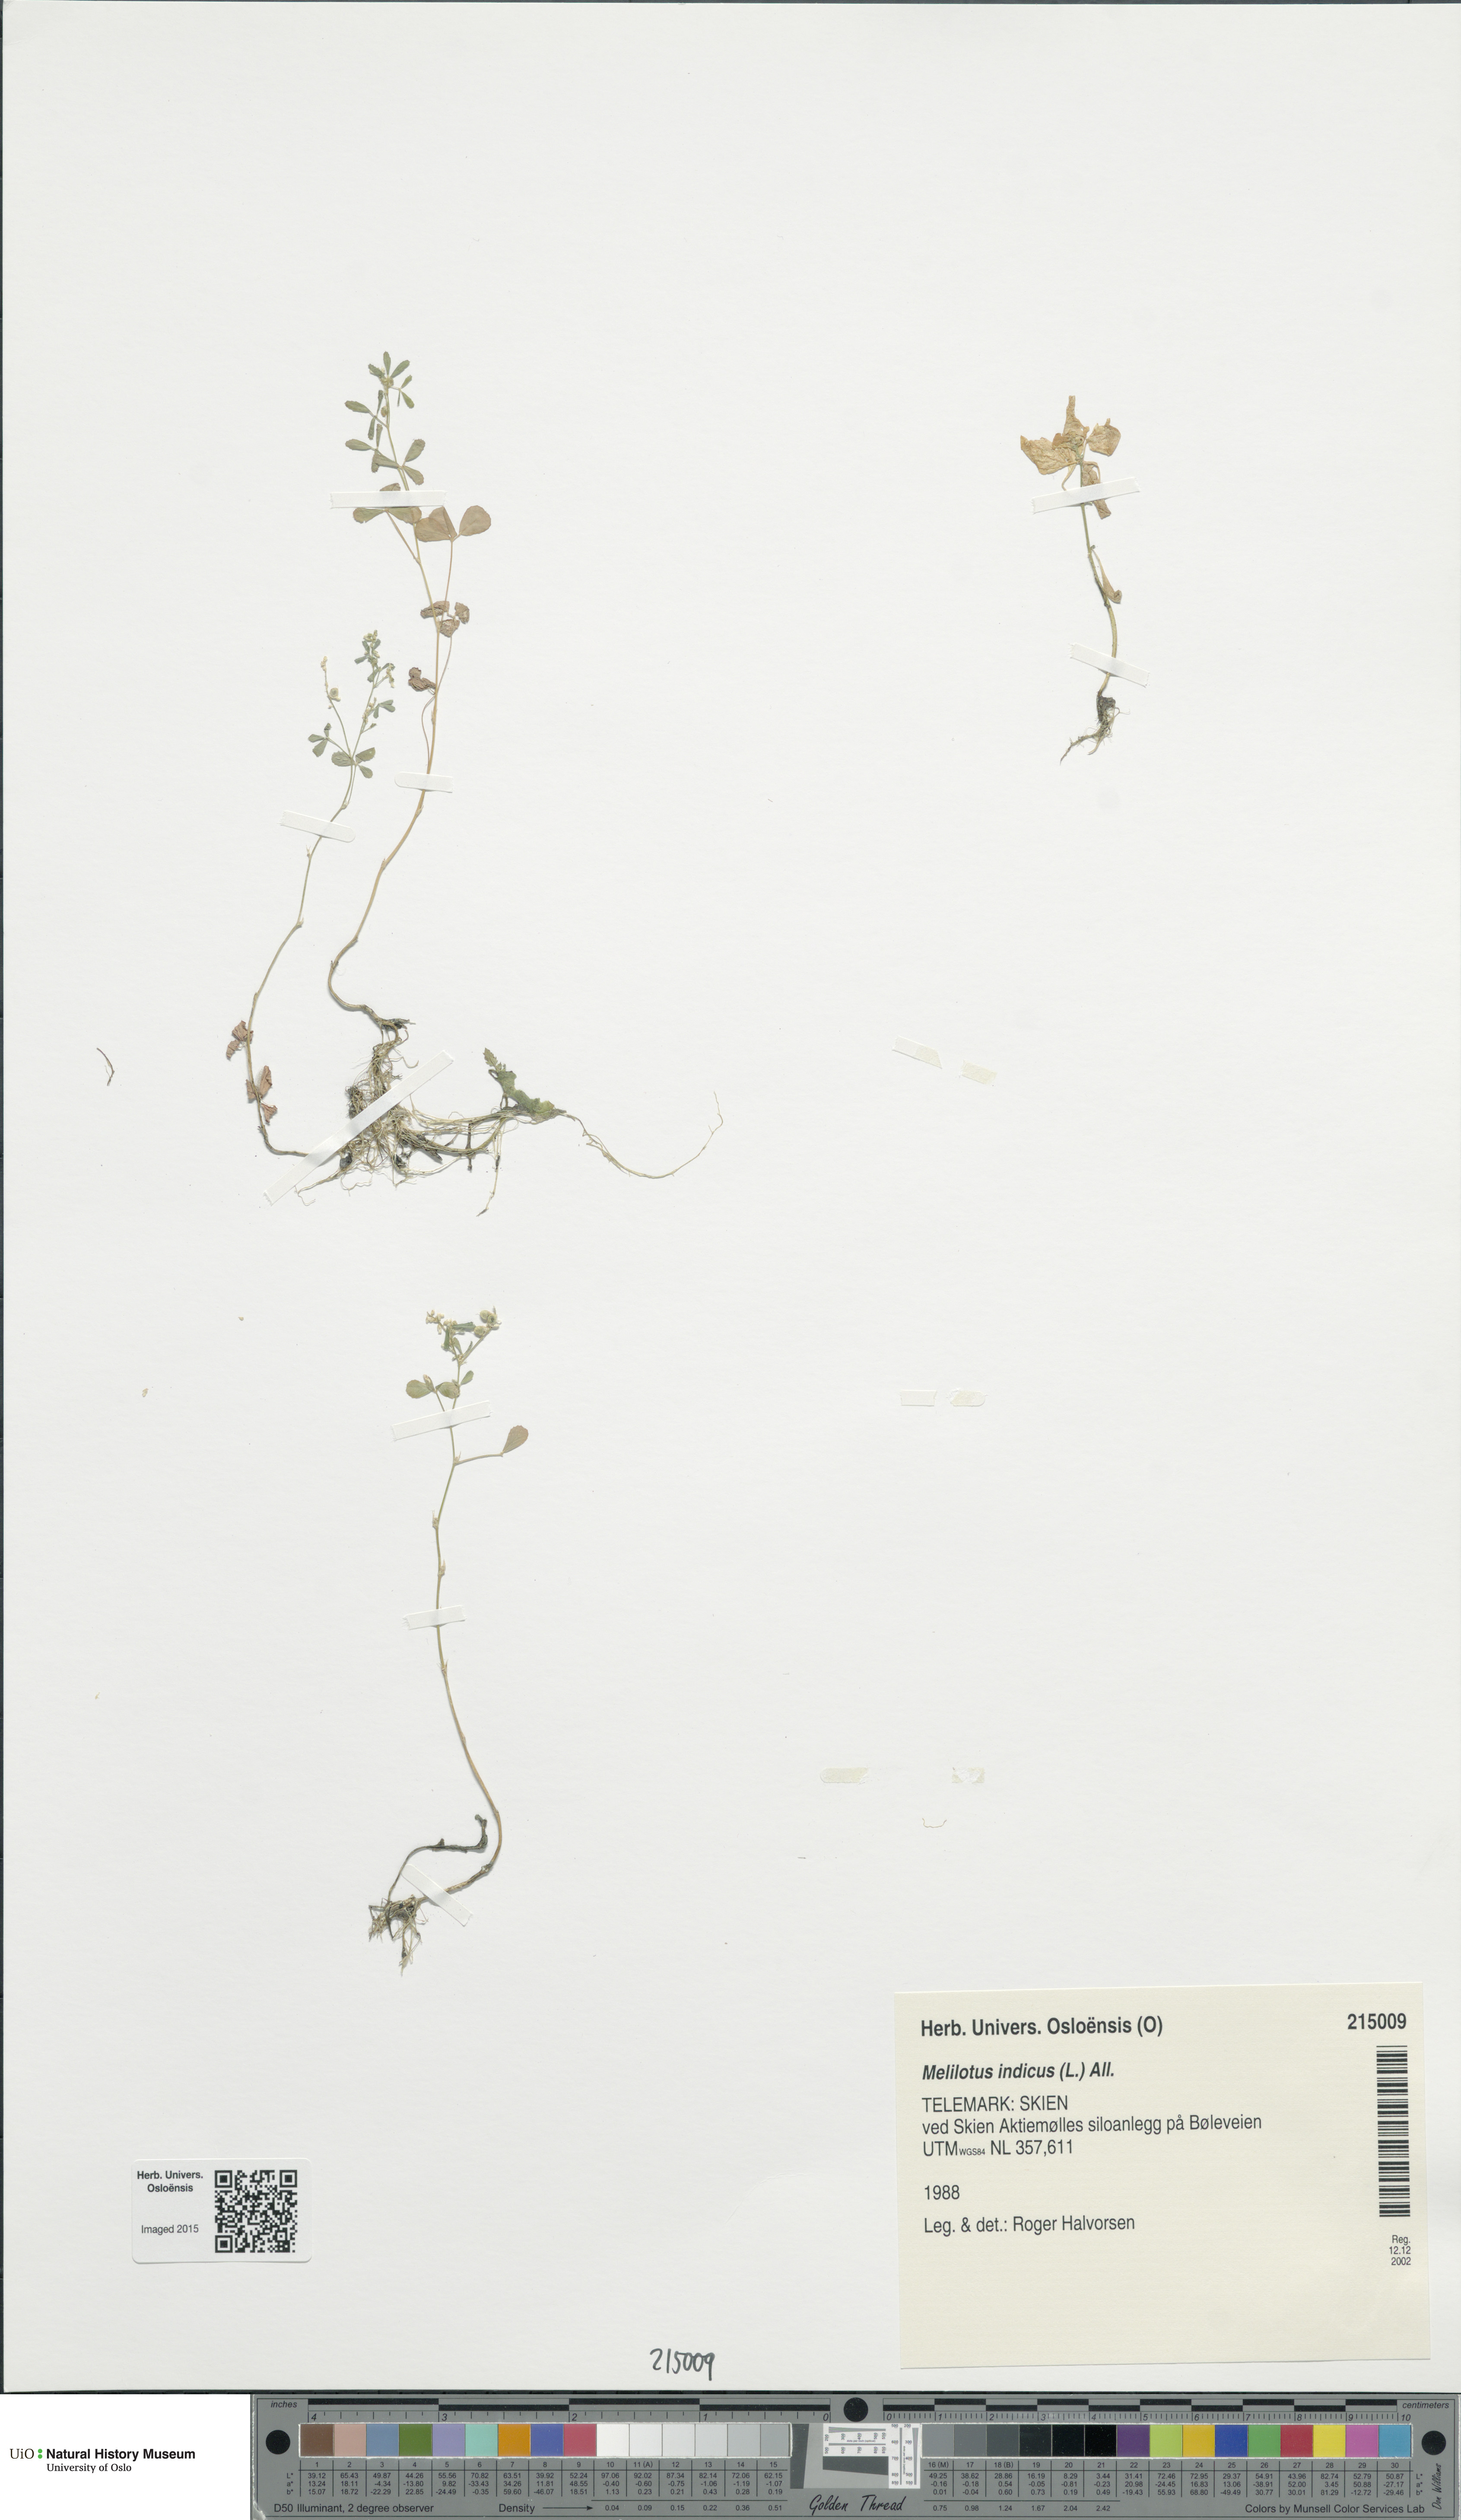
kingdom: Plantae
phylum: Tracheophyta
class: Magnoliopsida
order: Fabales
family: Fabaceae
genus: Melilotus
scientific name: Melilotus indicus
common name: Small melilot
